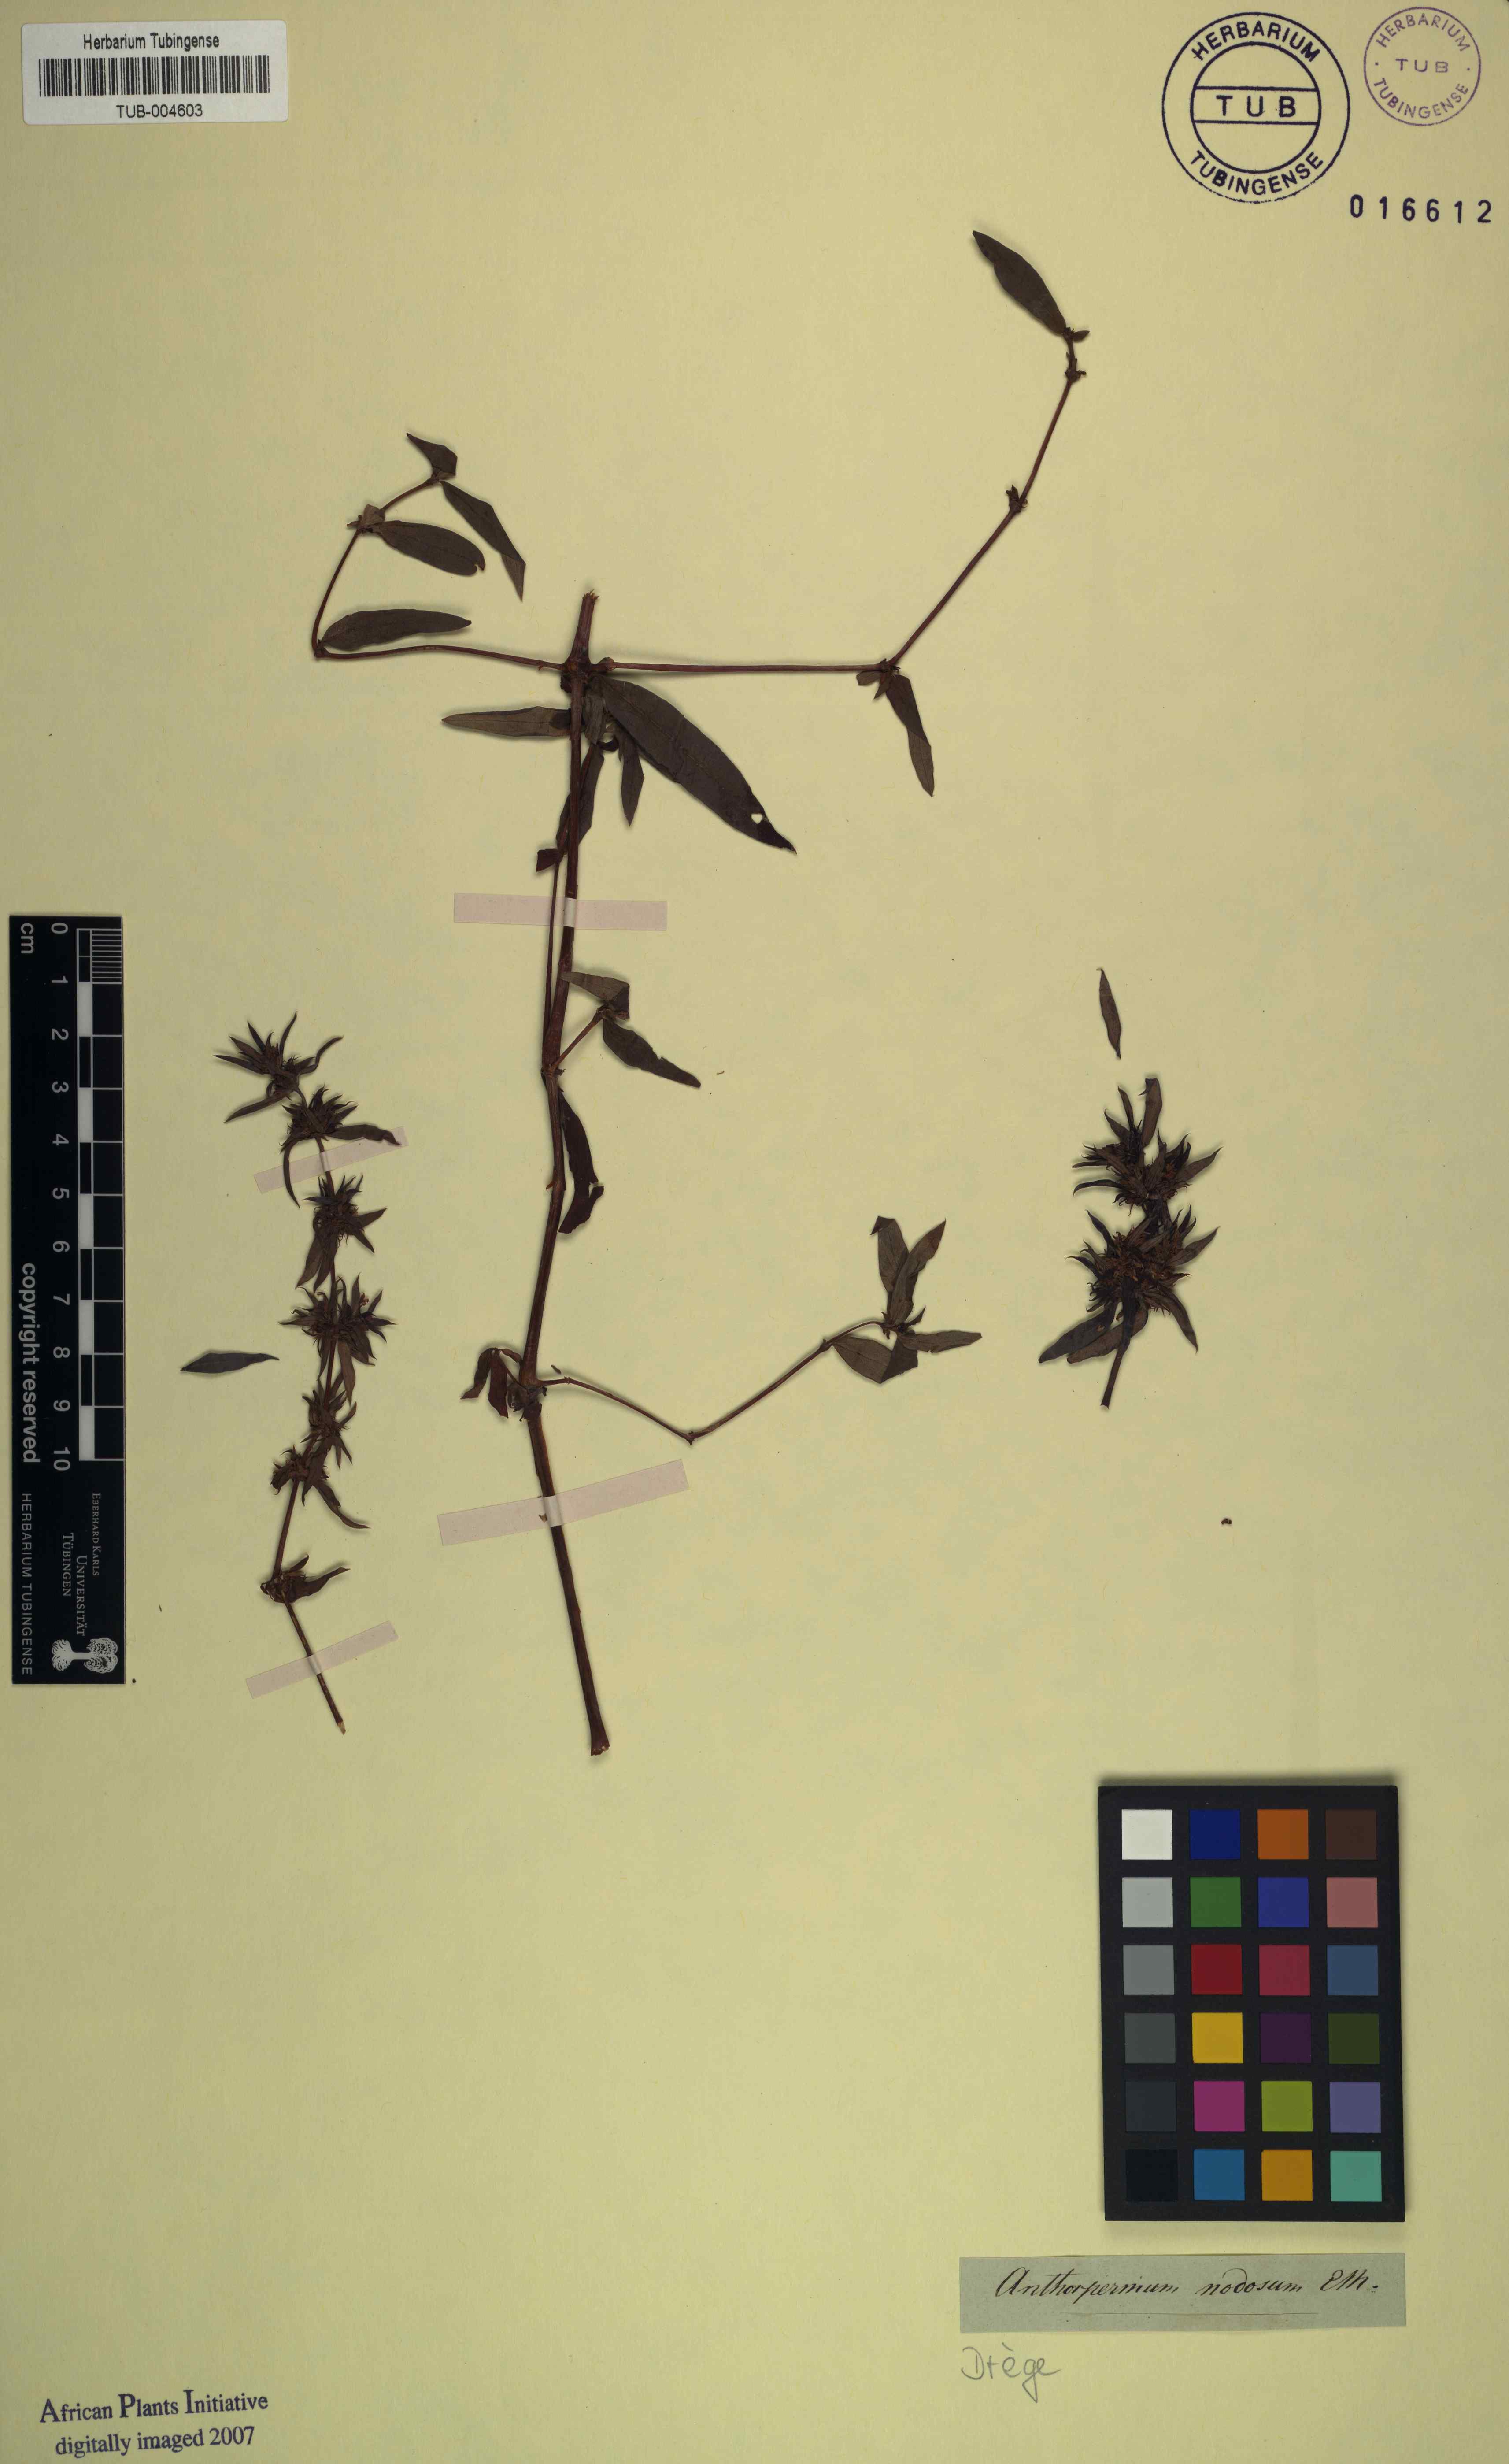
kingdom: Plantae
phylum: Tracheophyta
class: Magnoliopsida
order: Gentianales
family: Rubiaceae
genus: Anthospermum
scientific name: Anthospermum herbaceum
